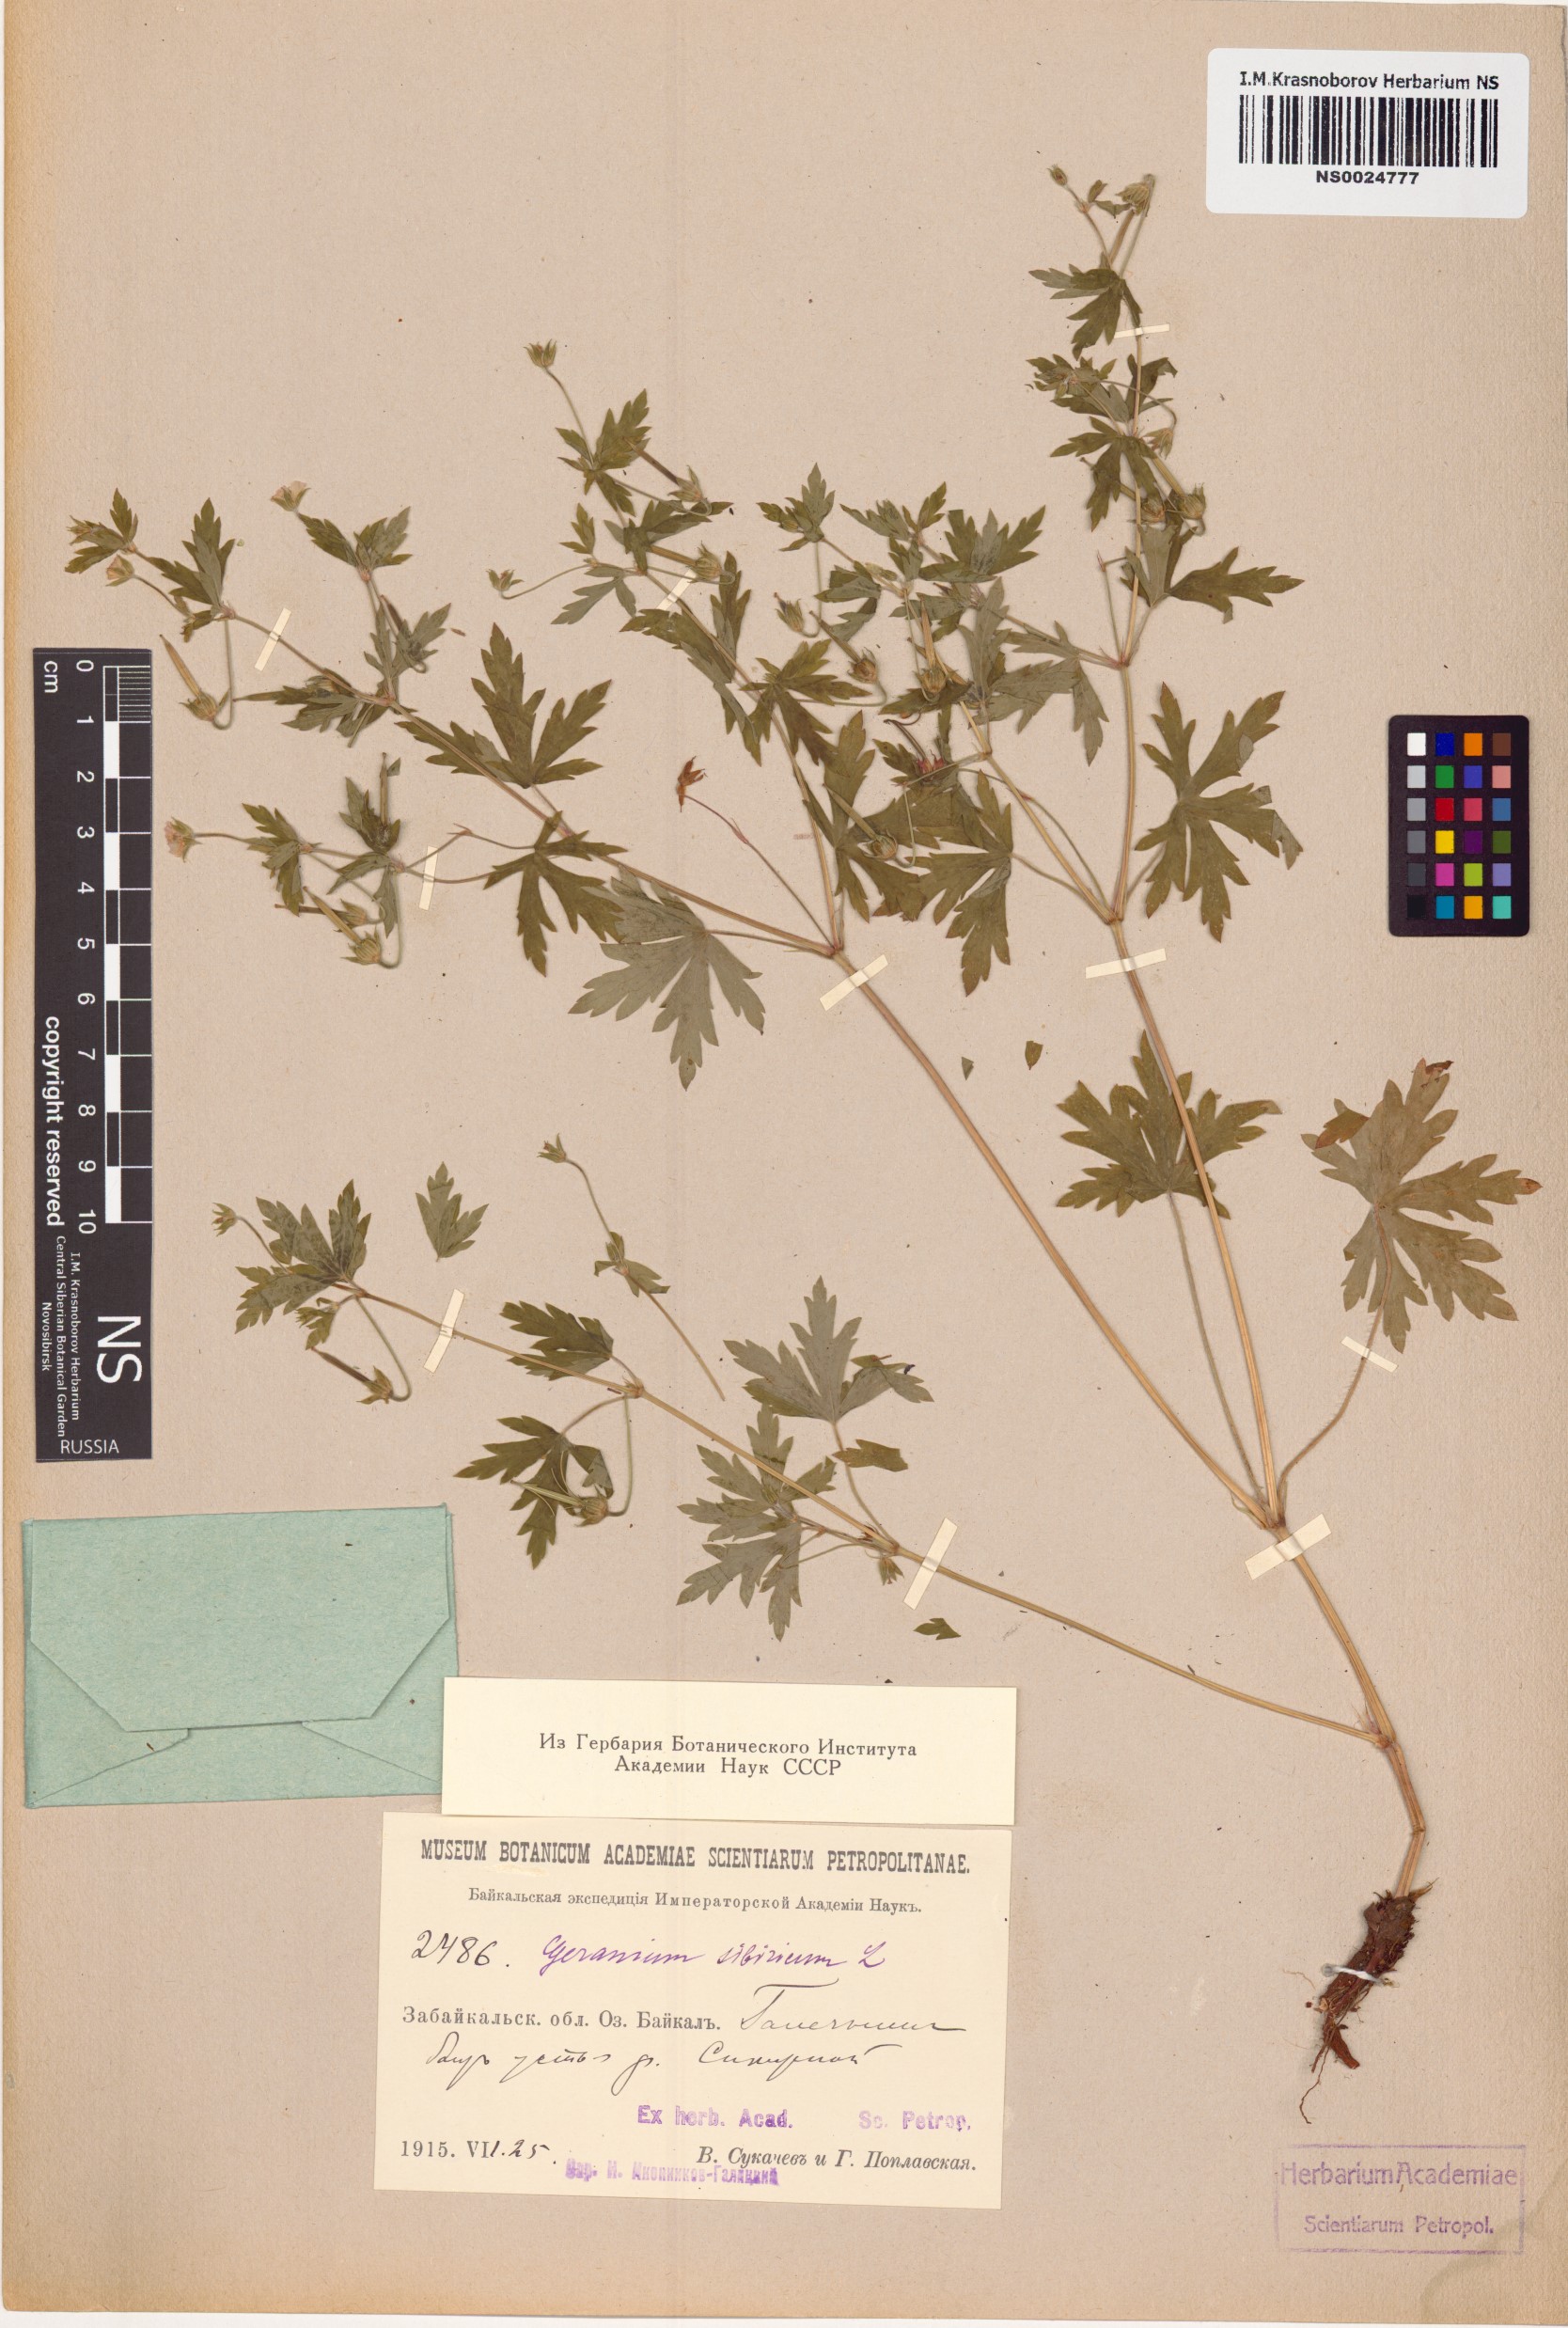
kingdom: Plantae
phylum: Tracheophyta
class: Magnoliopsida
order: Geraniales
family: Geraniaceae
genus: Geranium
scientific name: Geranium sibiricum
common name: Siberian crane's-bill
